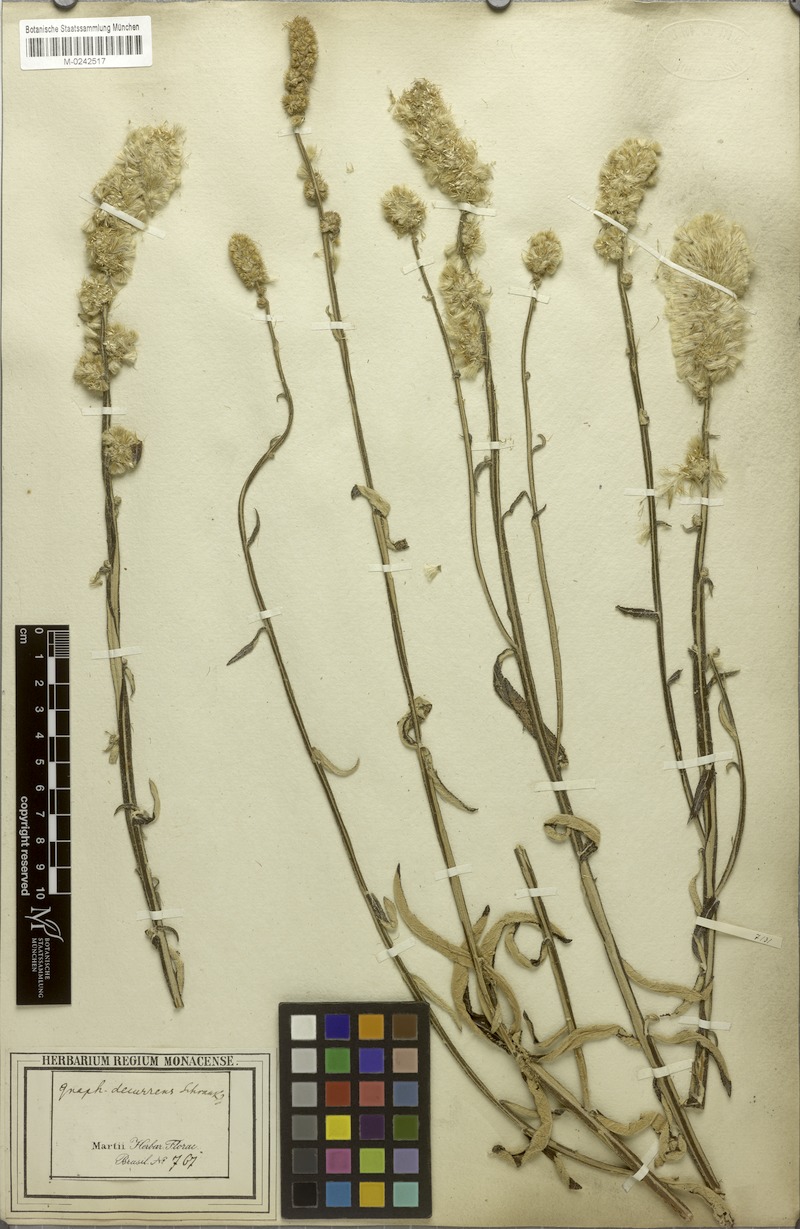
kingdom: Plantae
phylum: Tracheophyta
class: Magnoliopsida
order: Asterales
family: Asteraceae
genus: Pterocaulon
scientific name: Pterocaulon virgatum
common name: Wand blackroot
